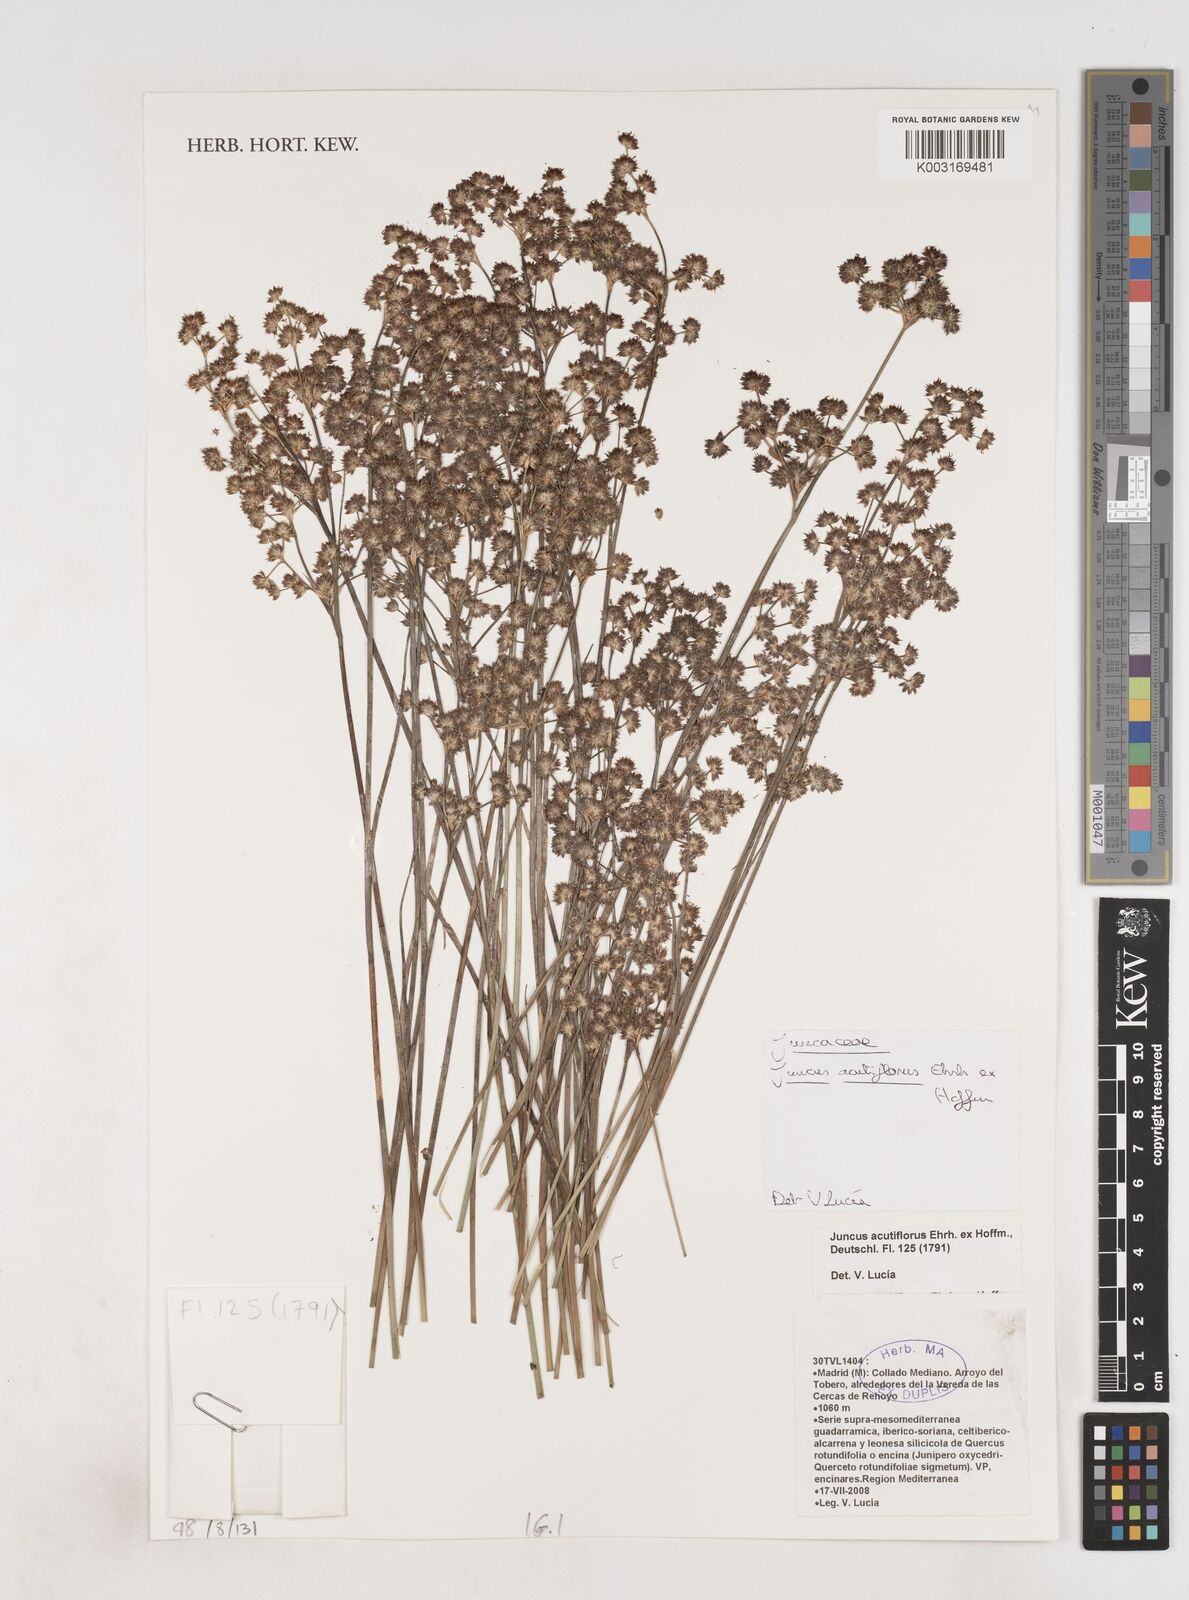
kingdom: Plantae
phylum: Tracheophyta
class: Liliopsida
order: Poales
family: Juncaceae
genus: Juncus
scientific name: Juncus acutiflorus
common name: Sharp-flowered rush
